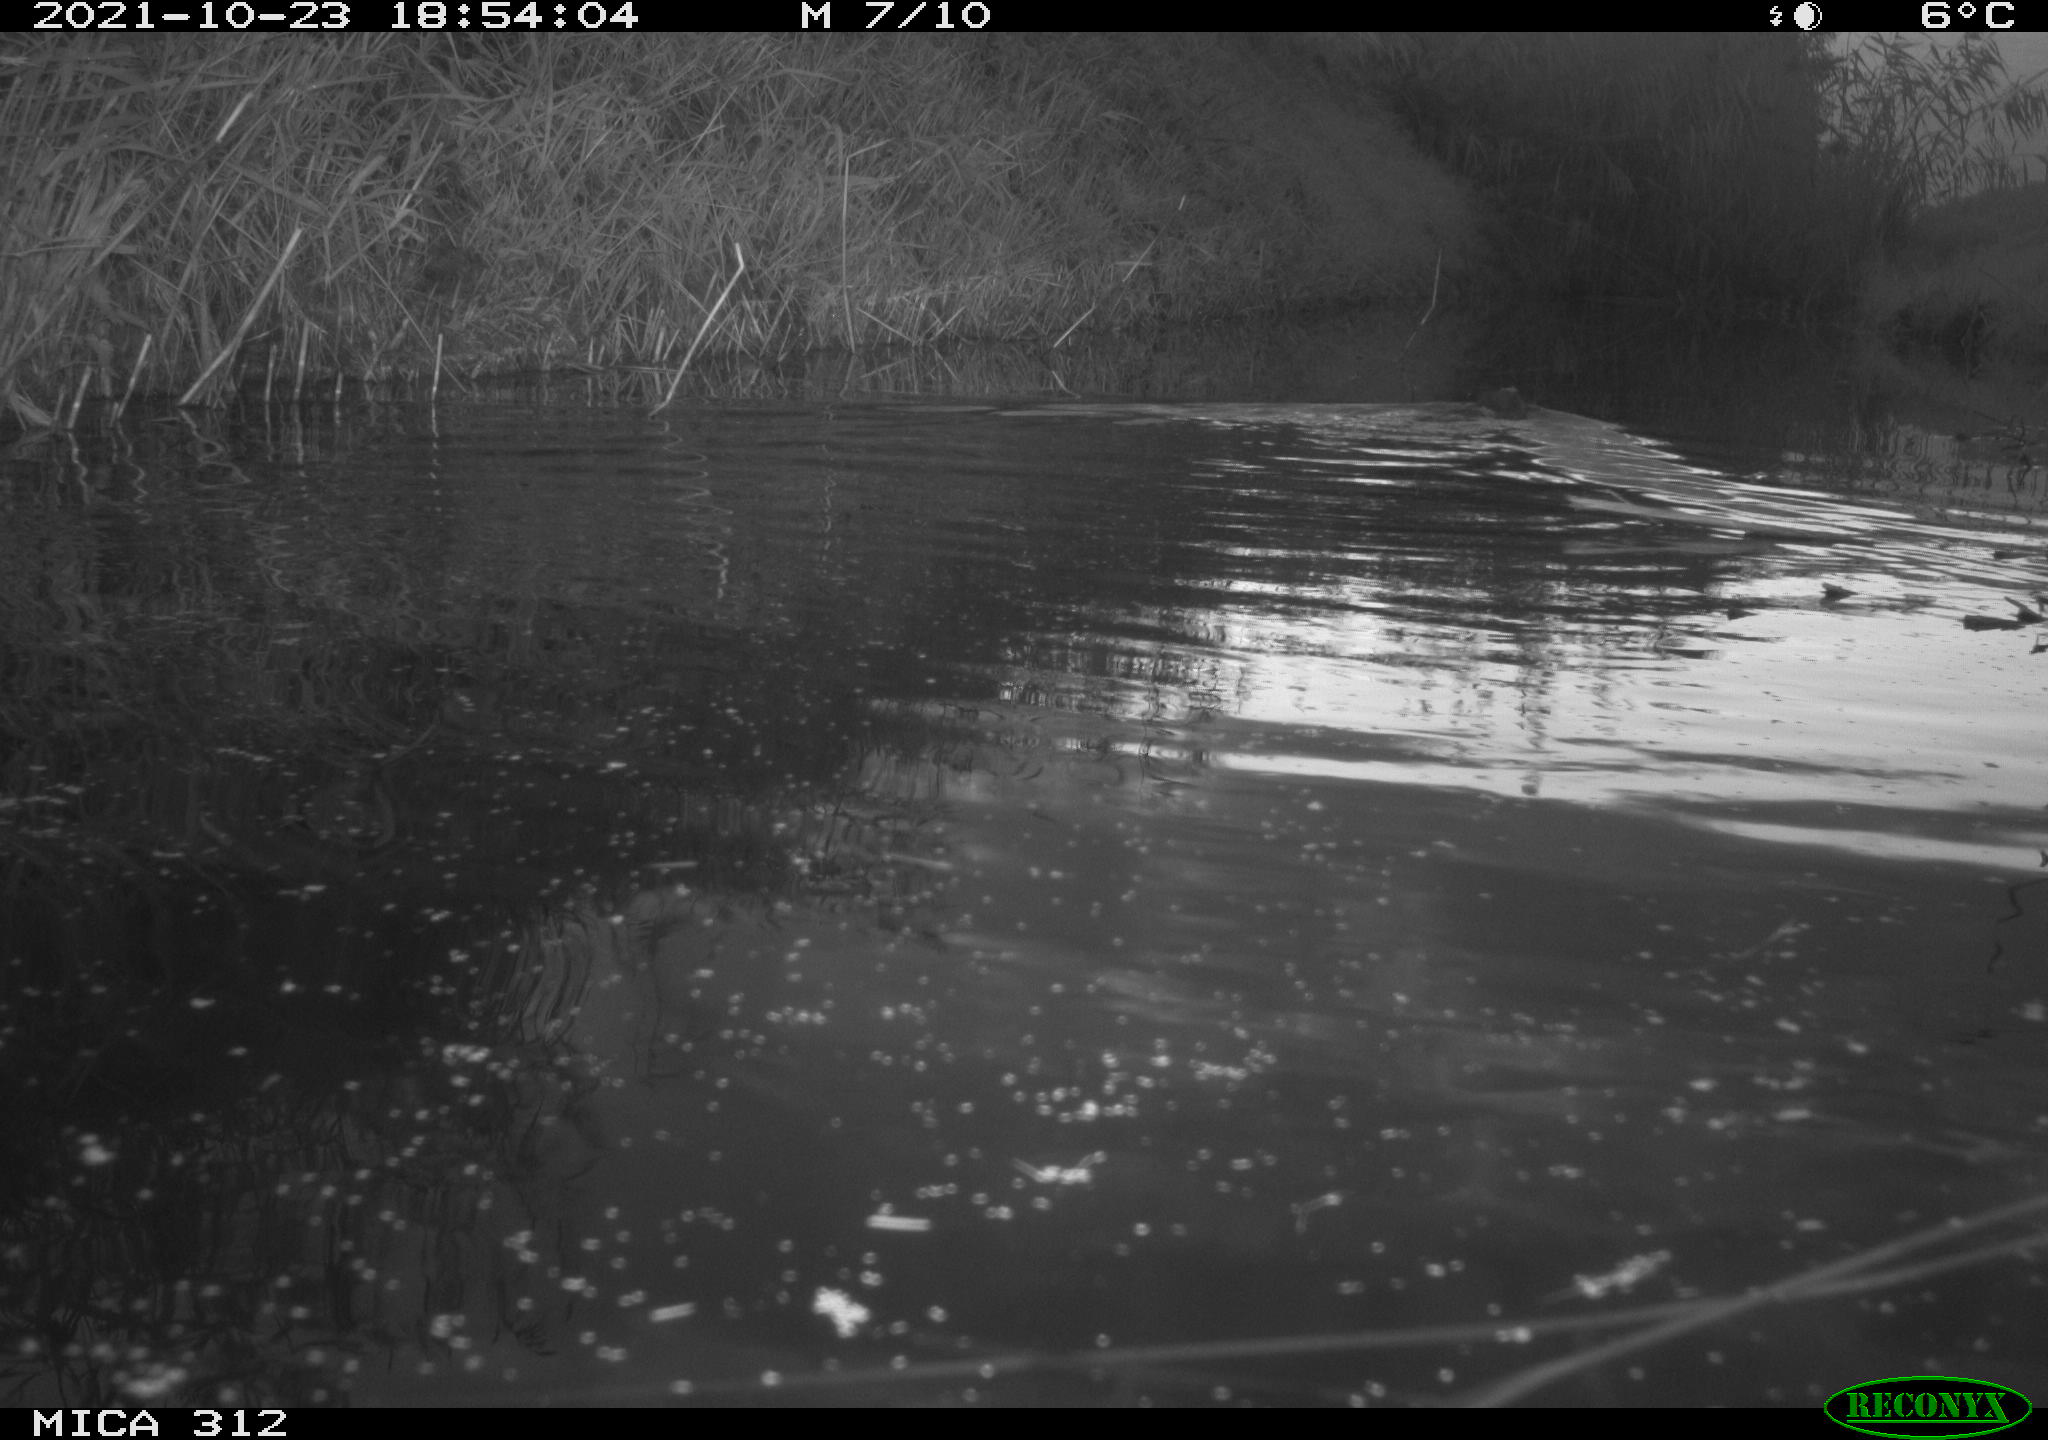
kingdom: Animalia
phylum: Chordata
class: Mammalia
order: Rodentia
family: Cricetidae
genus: Ondatra
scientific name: Ondatra zibethicus
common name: Muskrat
